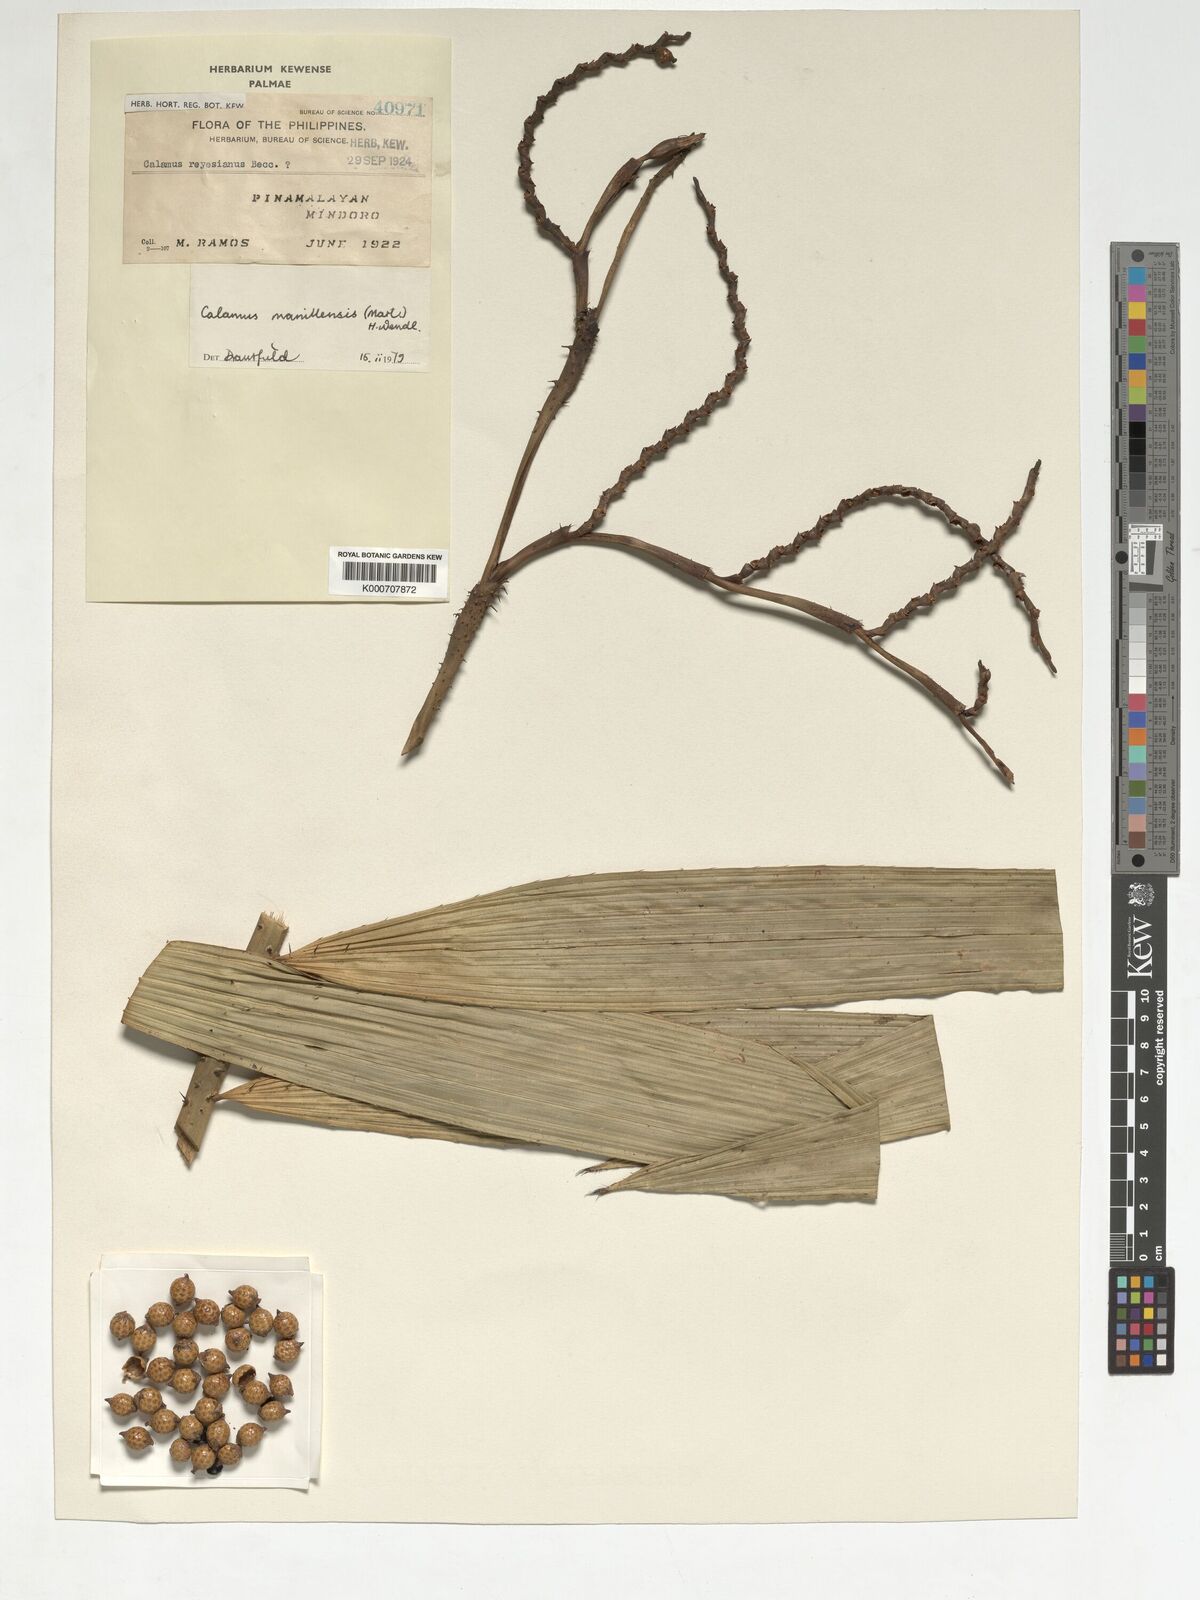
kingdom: Plantae
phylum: Tracheophyta
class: Liliopsida
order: Arecales
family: Arecaceae
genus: Calamus
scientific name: Calamus manillensis
